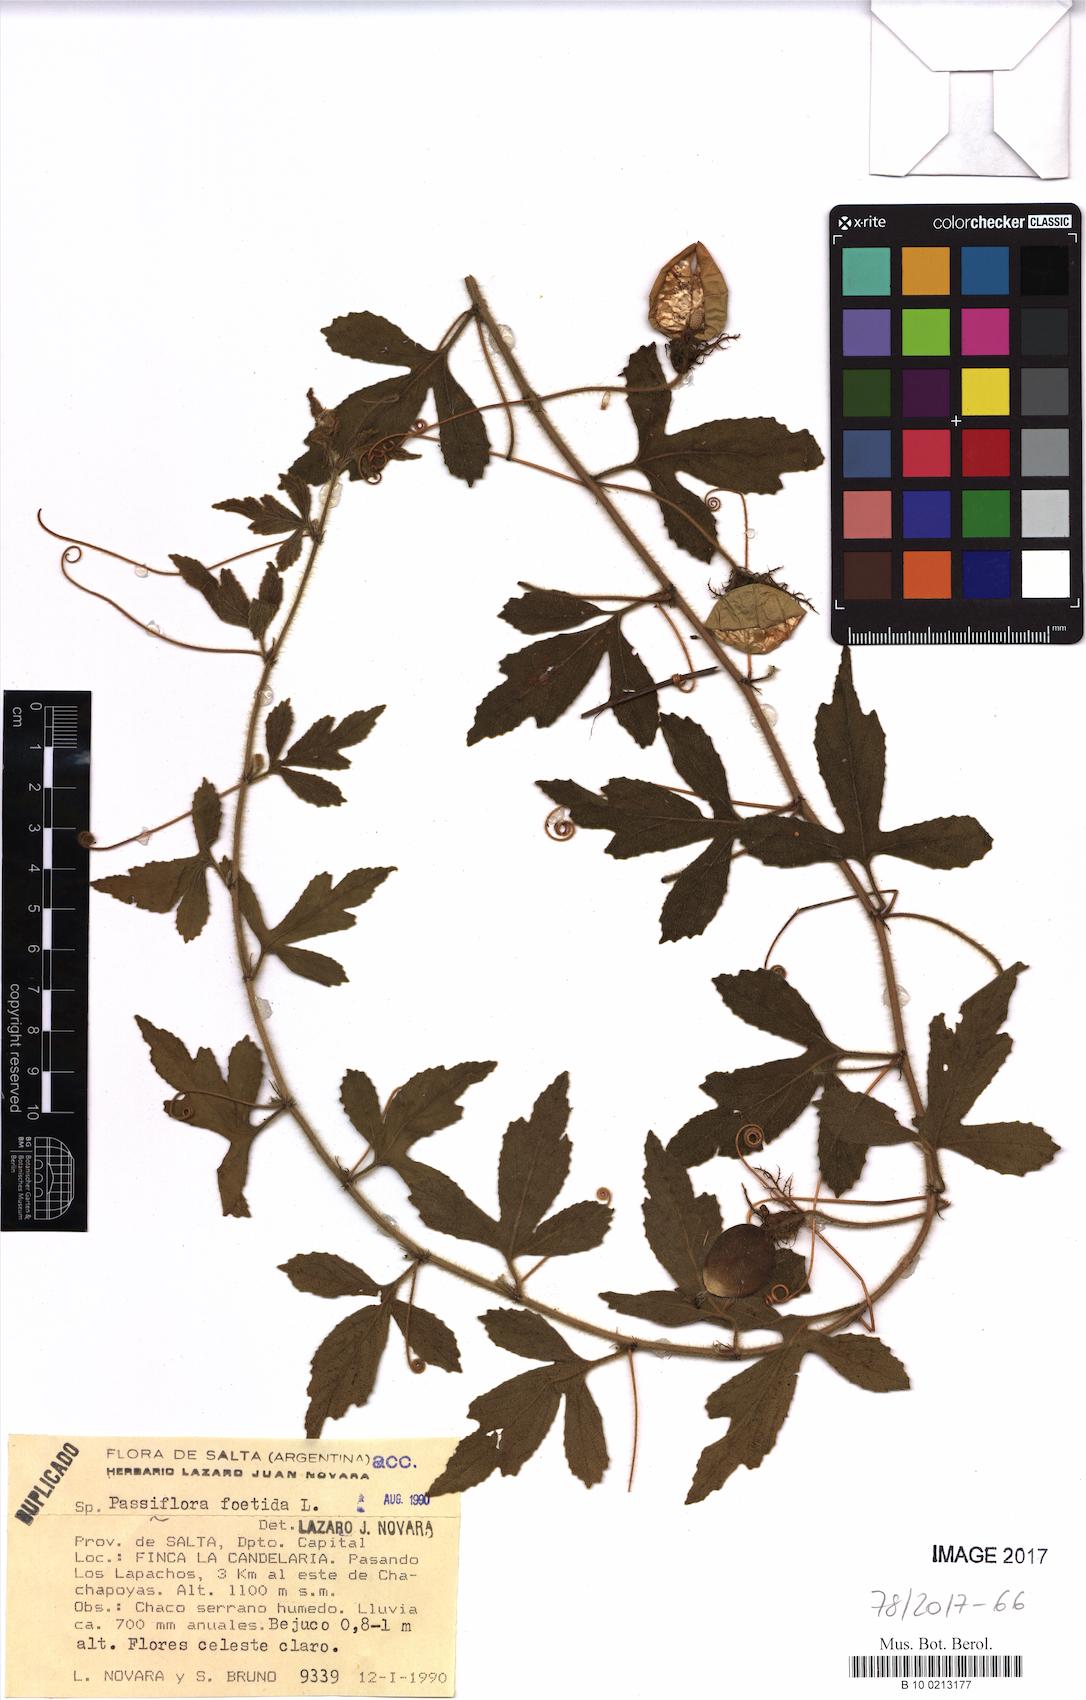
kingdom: Plantae
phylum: Tracheophyta
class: Magnoliopsida
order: Malpighiales
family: Passifloraceae
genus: Passiflora
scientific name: Passiflora foetida
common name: Fetid passionflower
